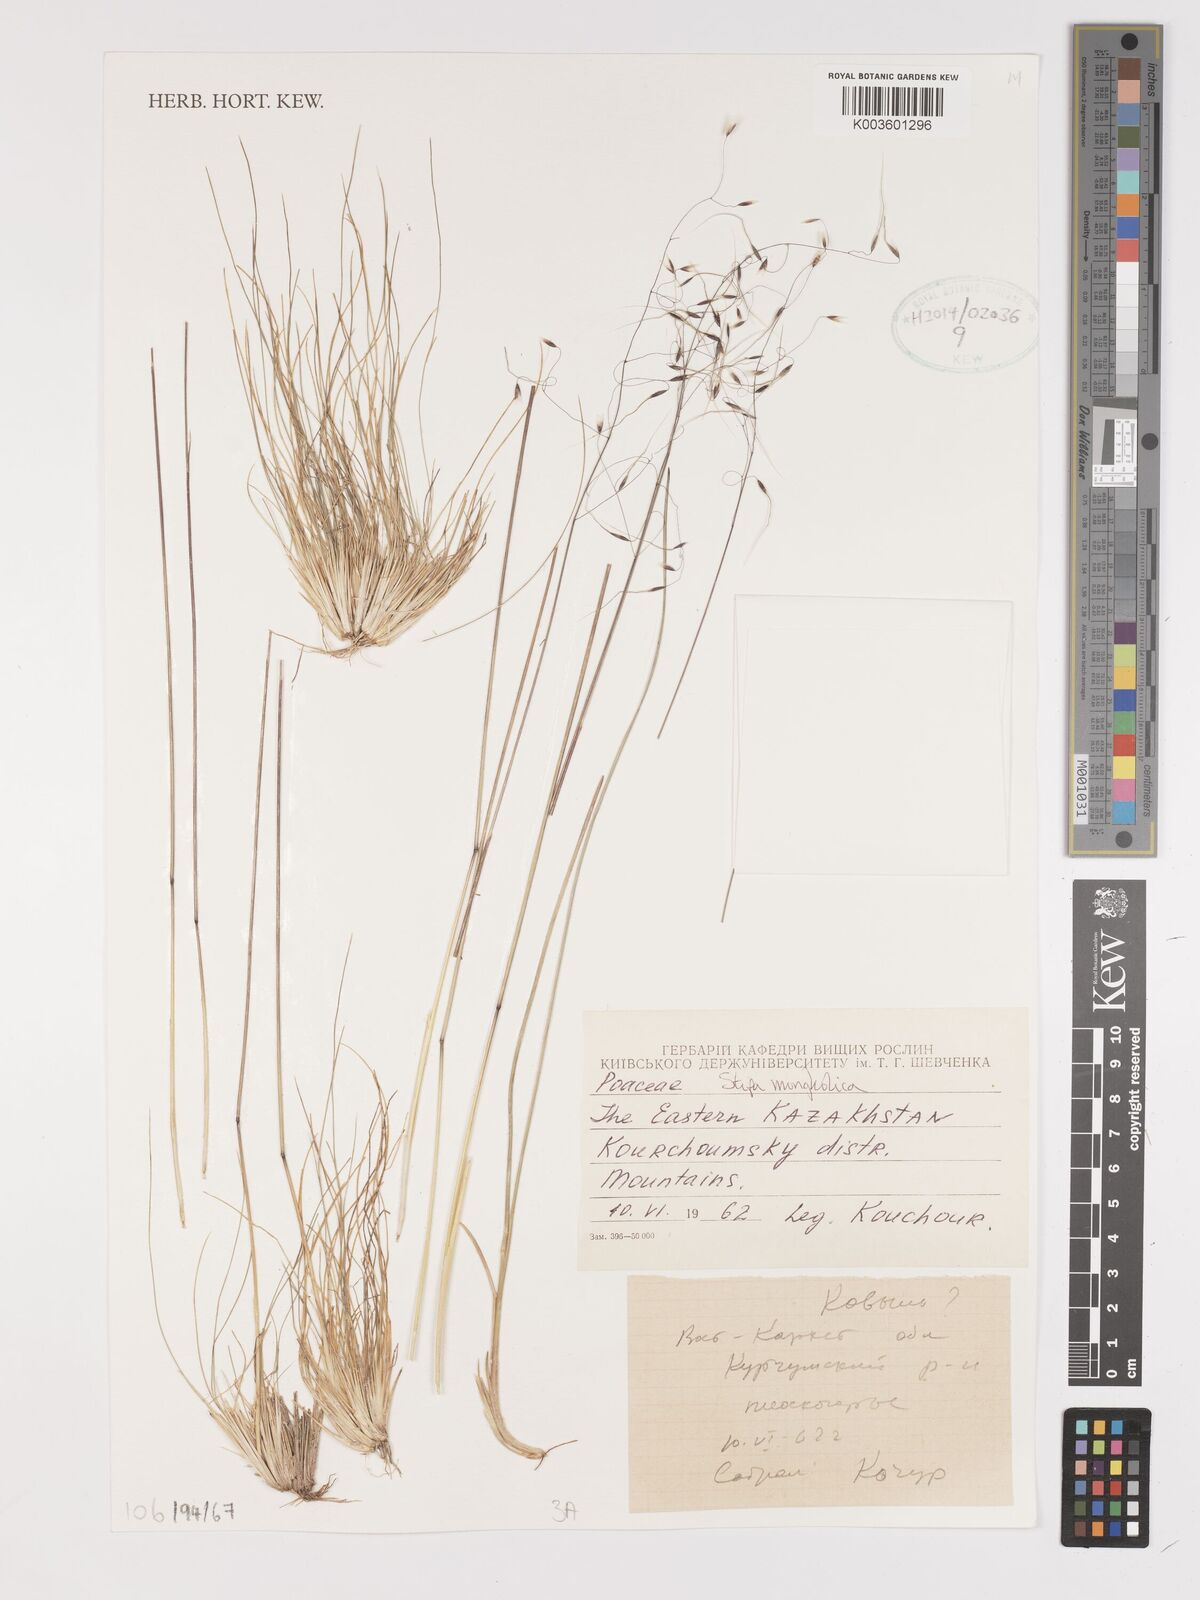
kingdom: Plantae
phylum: Tracheophyta
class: Liliopsida
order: Poales
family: Poaceae
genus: Ptilagrostis
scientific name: Ptilagrostis mongholica
